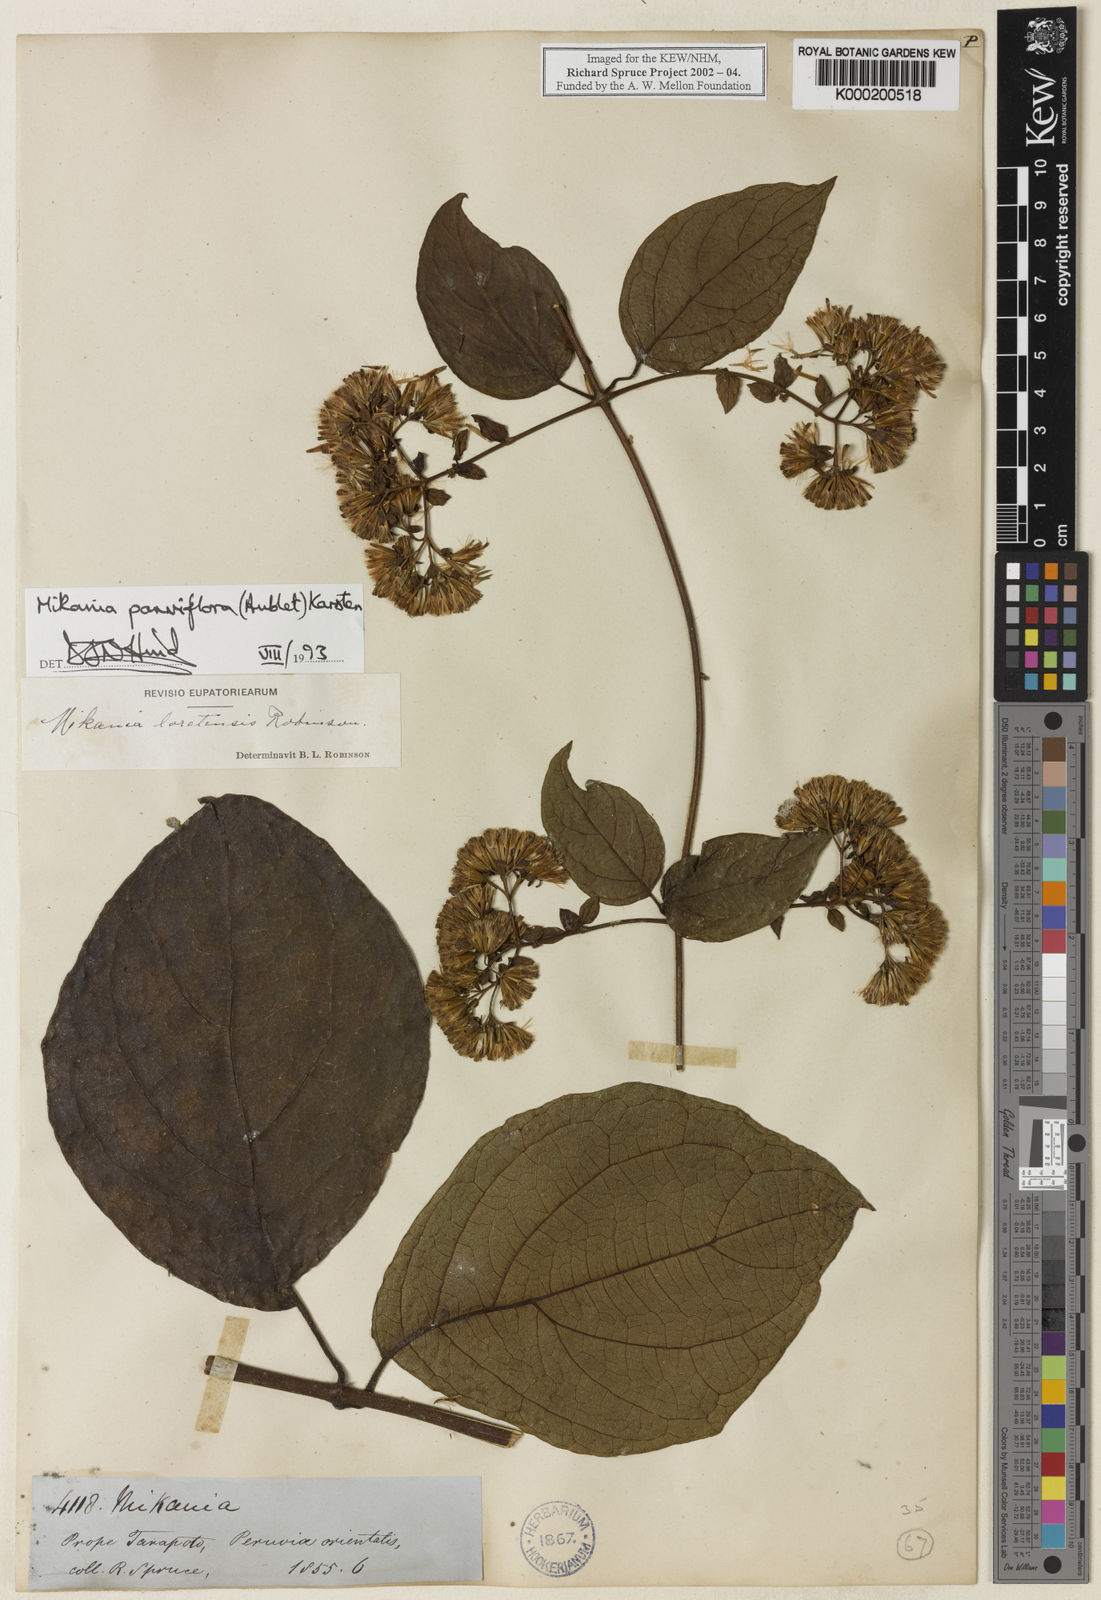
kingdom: Plantae
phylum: Tracheophyta
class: Magnoliopsida
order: Asterales
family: Asteraceae
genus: Mikania
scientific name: Mikania parviflora
